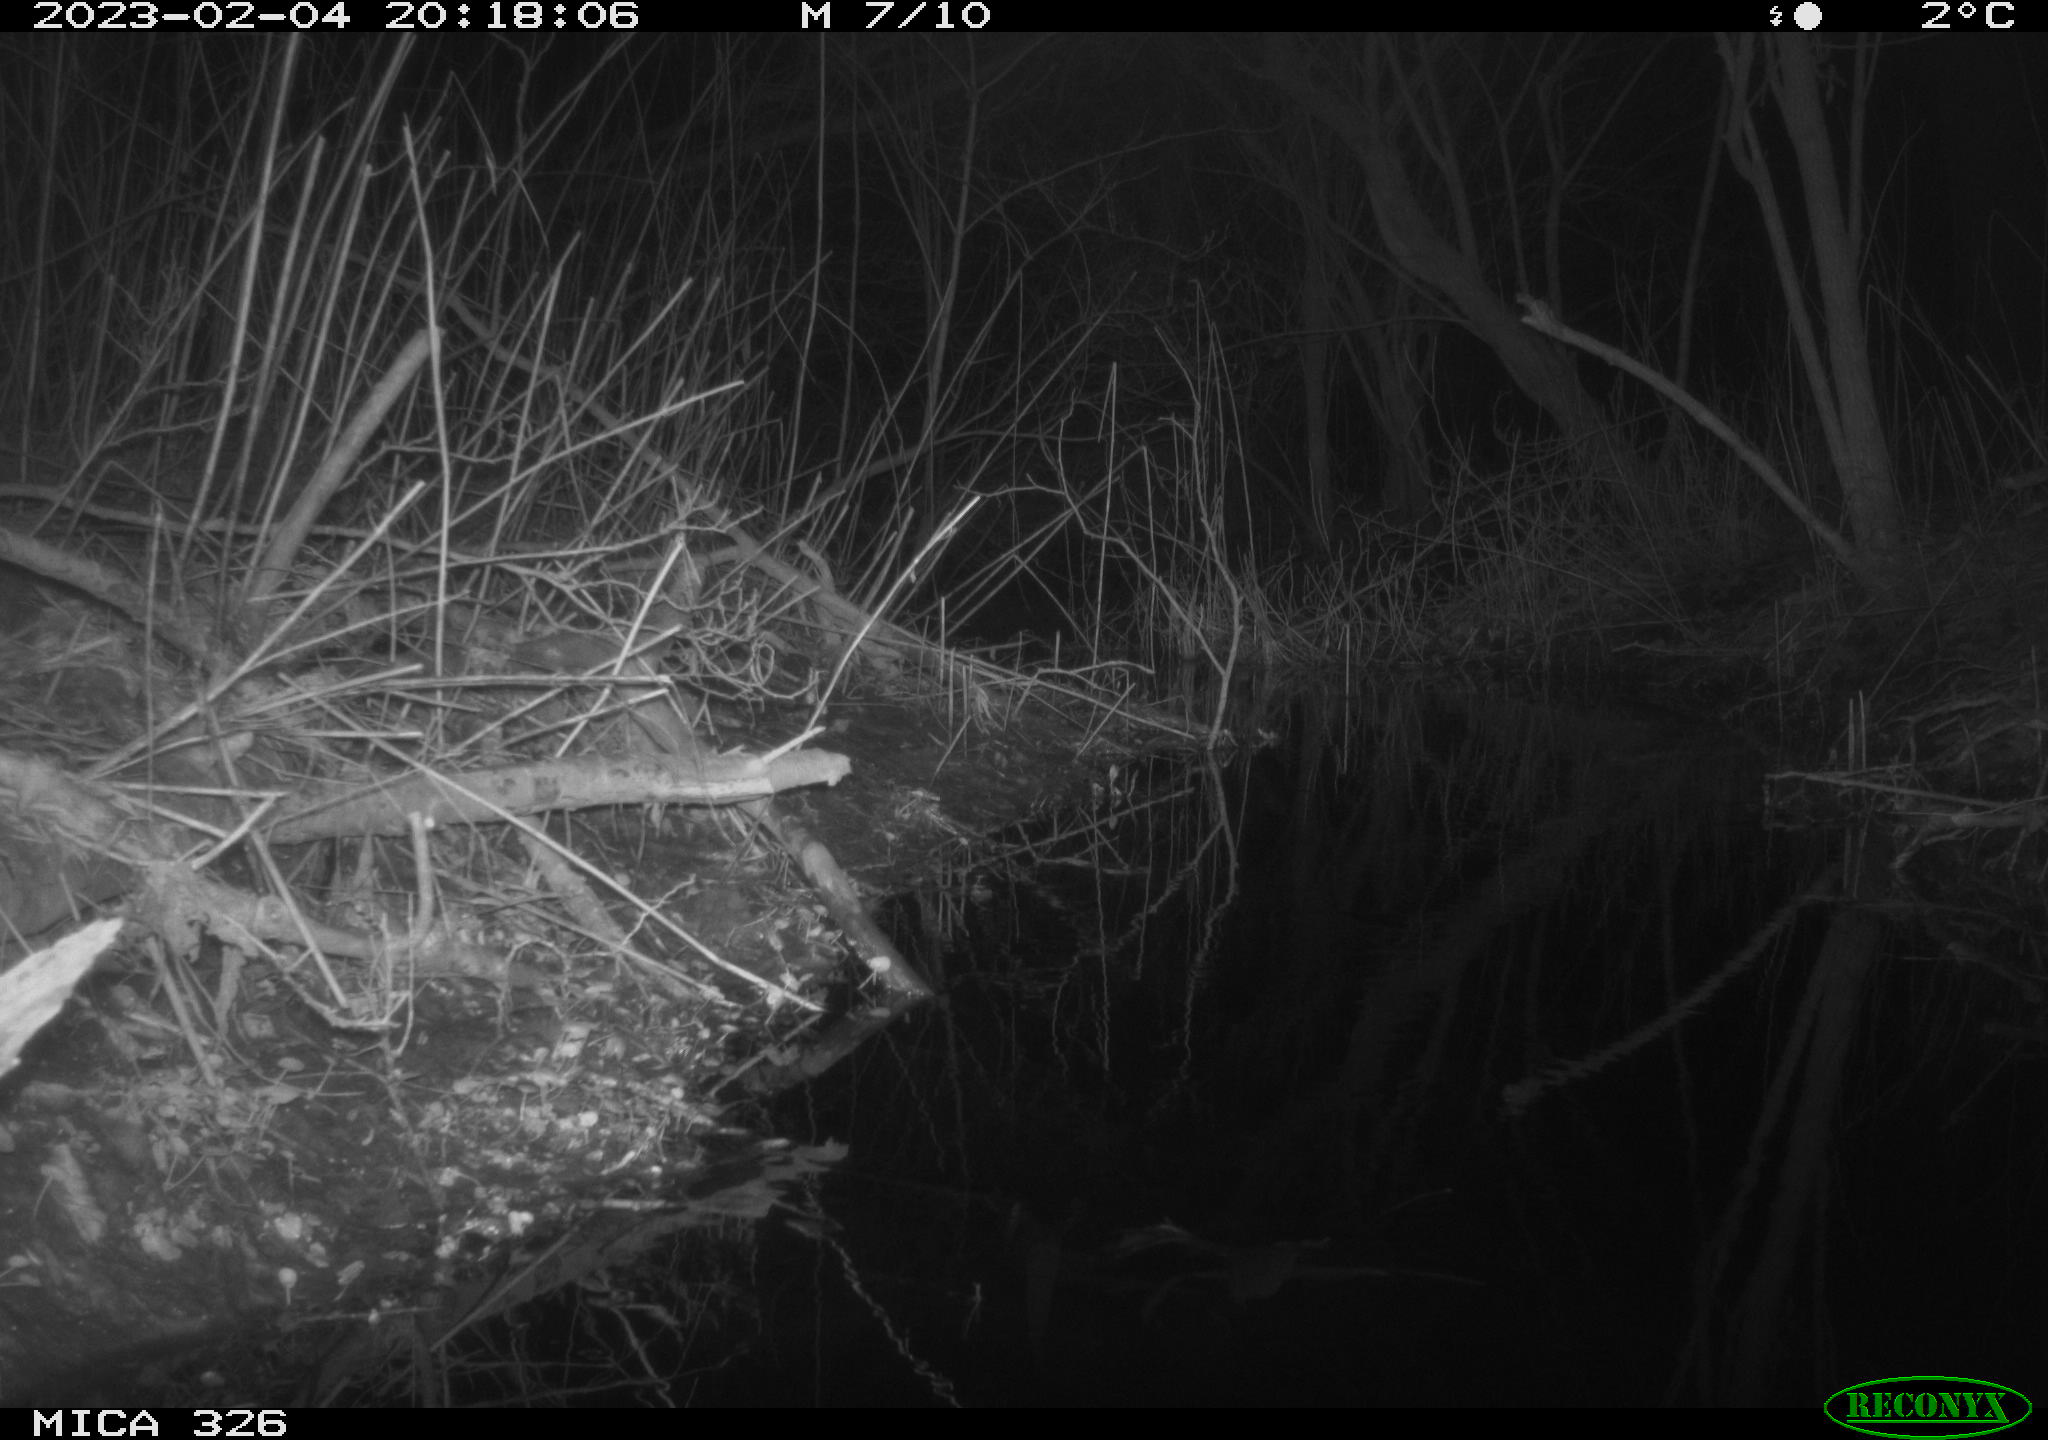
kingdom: Animalia
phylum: Chordata
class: Mammalia
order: Rodentia
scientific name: Rodentia
